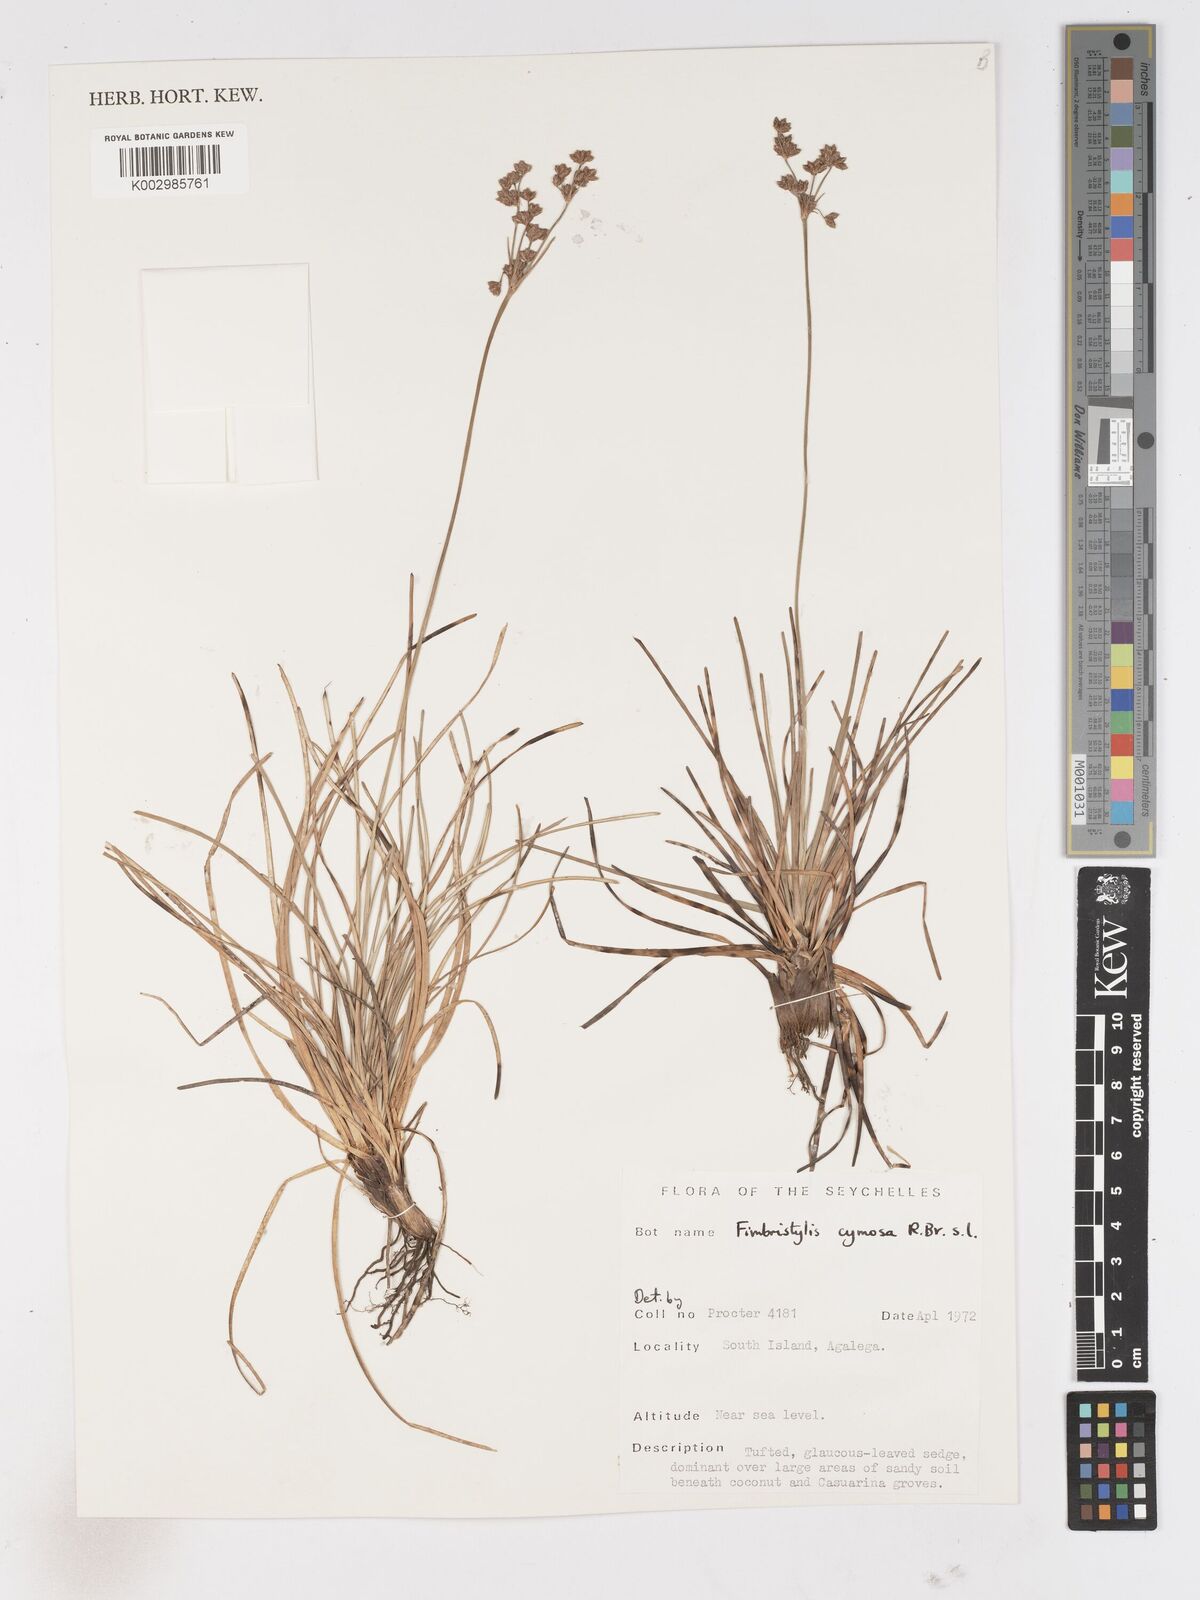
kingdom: Plantae
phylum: Tracheophyta
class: Liliopsida
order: Poales
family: Cyperaceae
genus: Fimbristylis
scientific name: Fimbristylis cymosa
